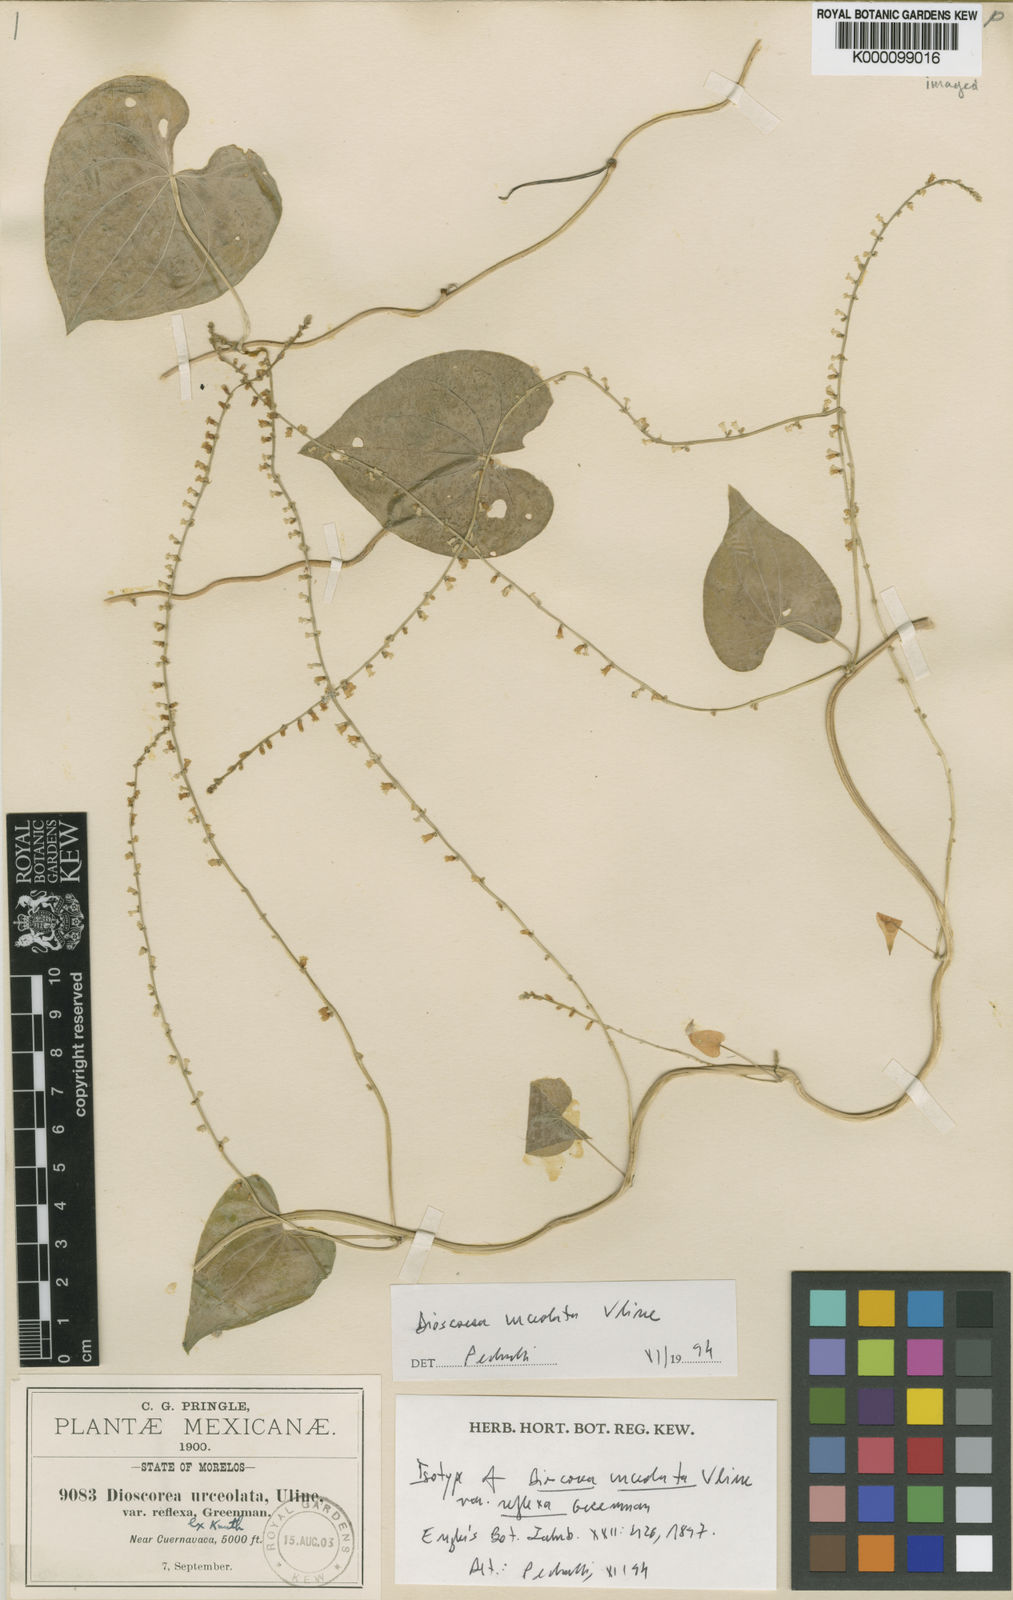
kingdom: Plantae
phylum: Tracheophyta
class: Liliopsida
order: Dioscoreales
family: Dioscoreaceae
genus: Dioscorea
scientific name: Dioscorea urceolata
